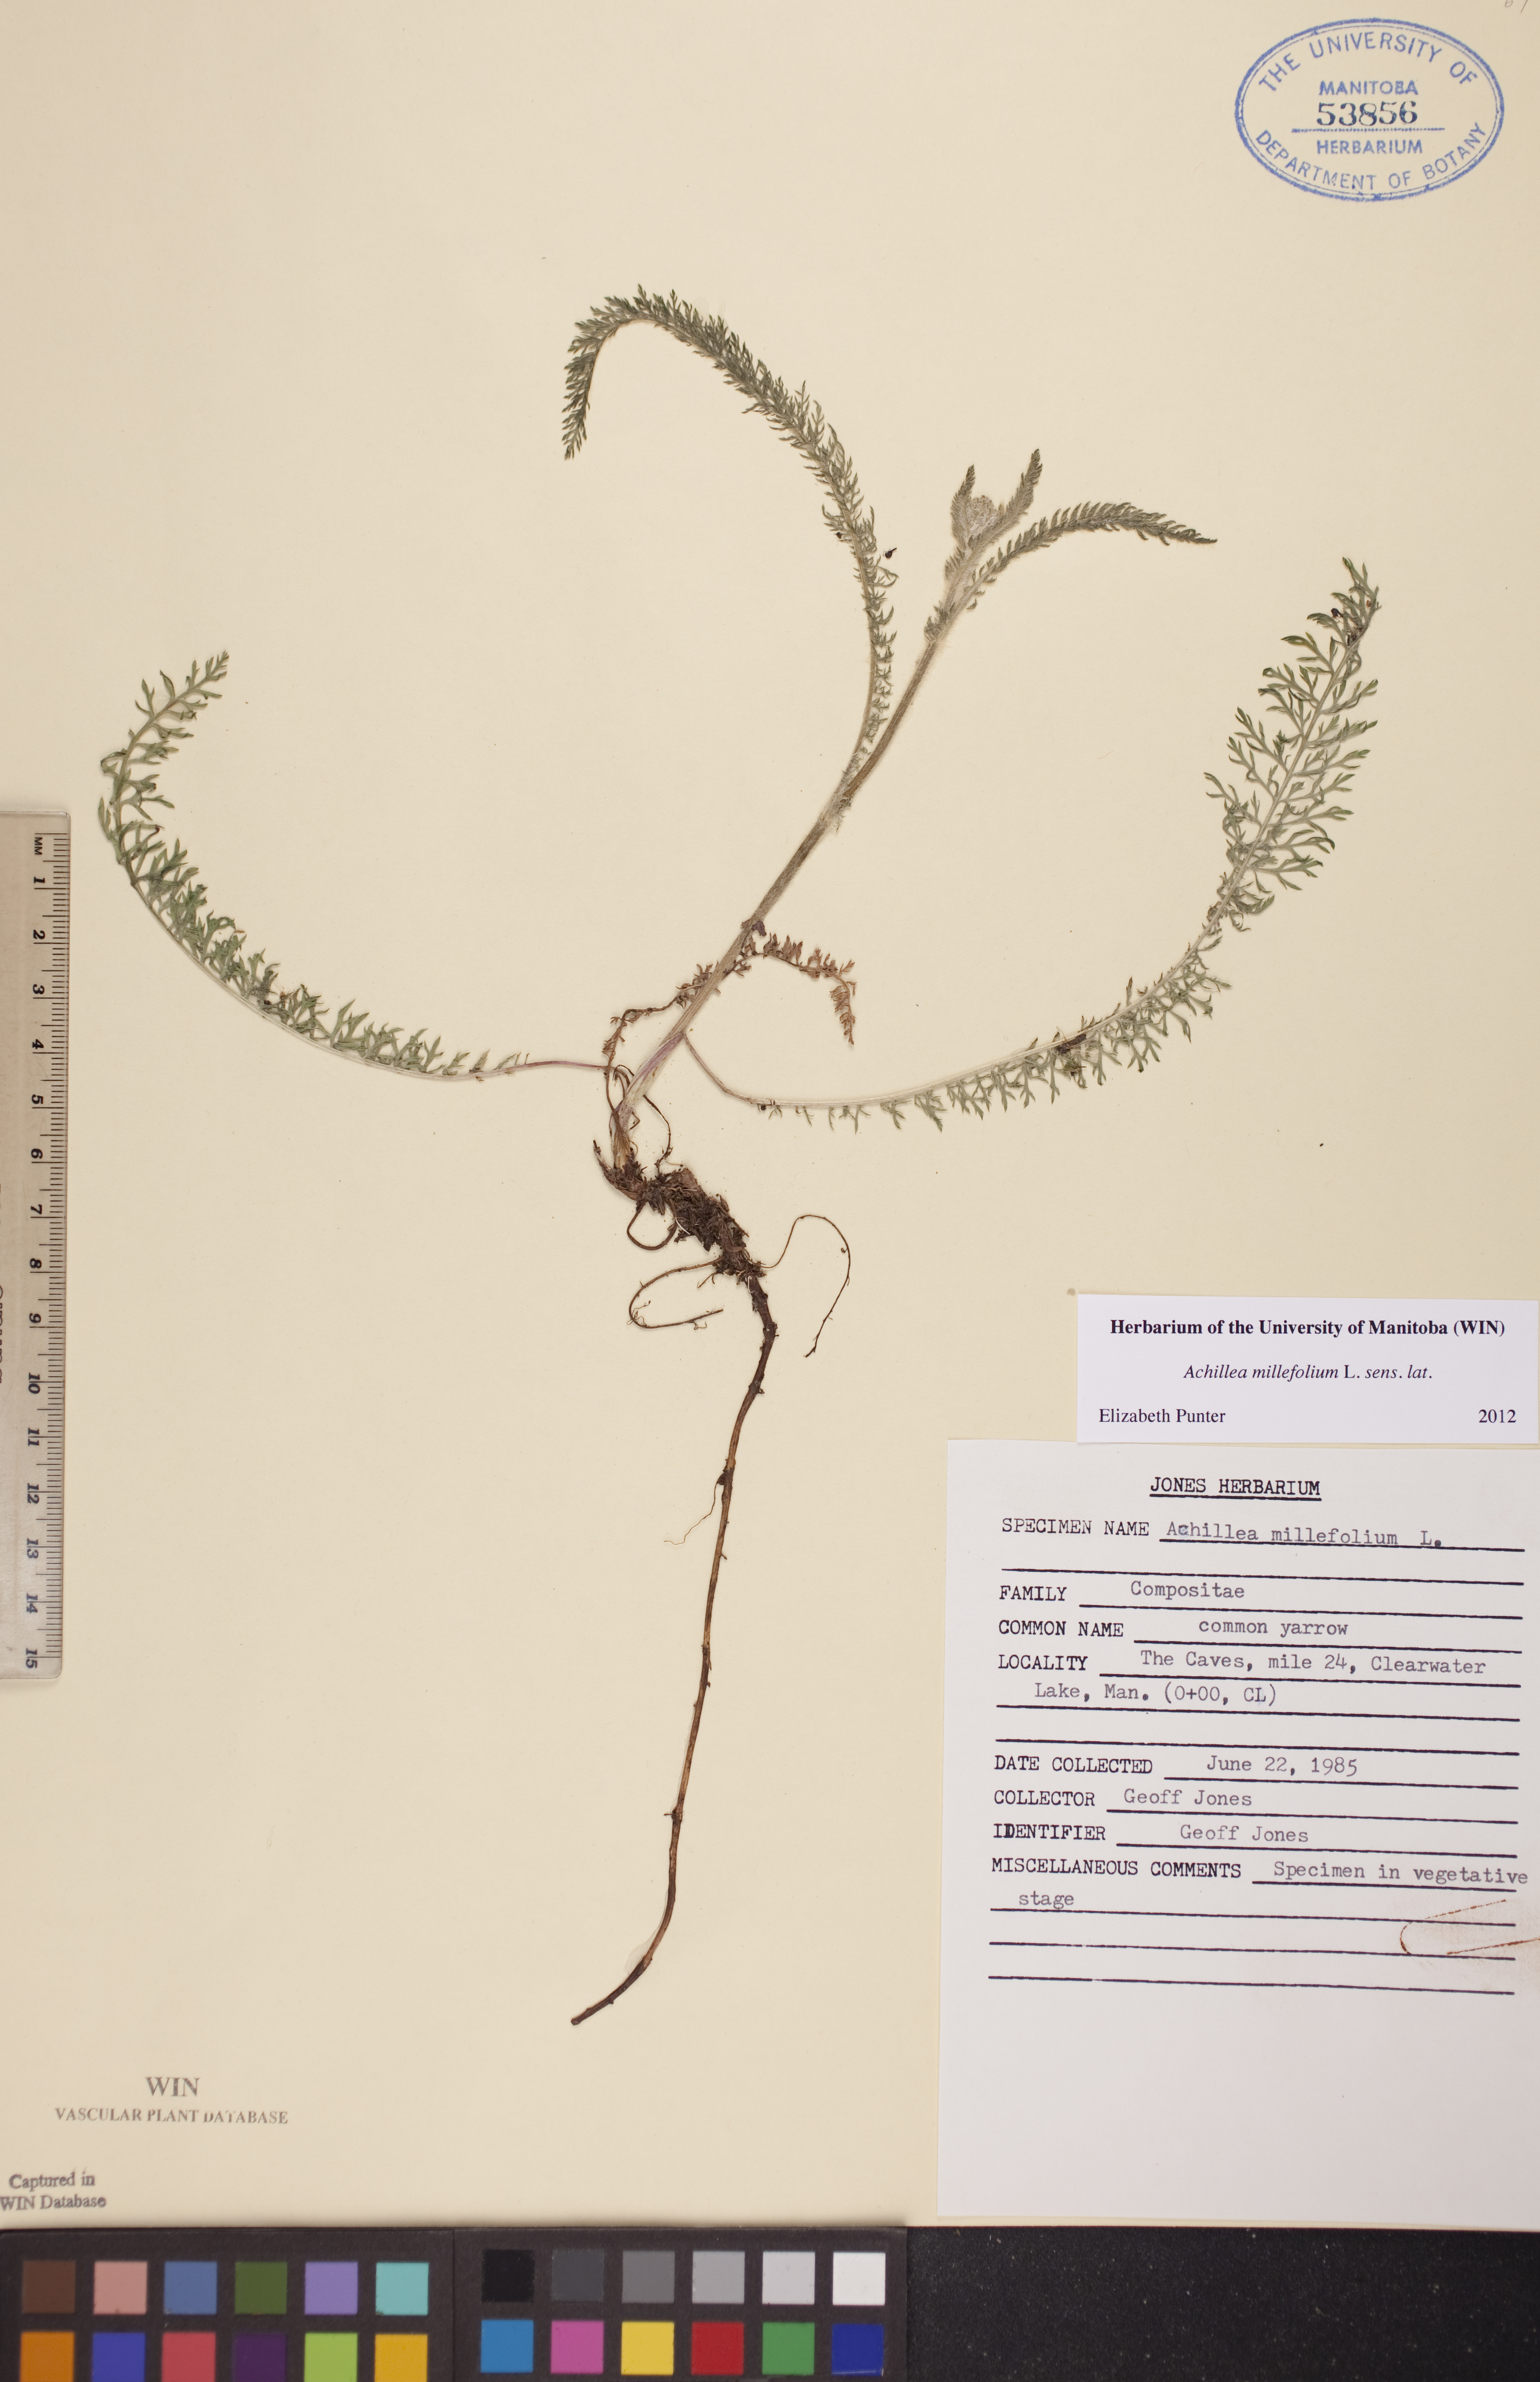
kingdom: Plantae
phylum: Tracheophyta
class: Magnoliopsida
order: Asterales
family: Asteraceae
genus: Achillea
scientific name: Achillea millefolium
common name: Yarrow
